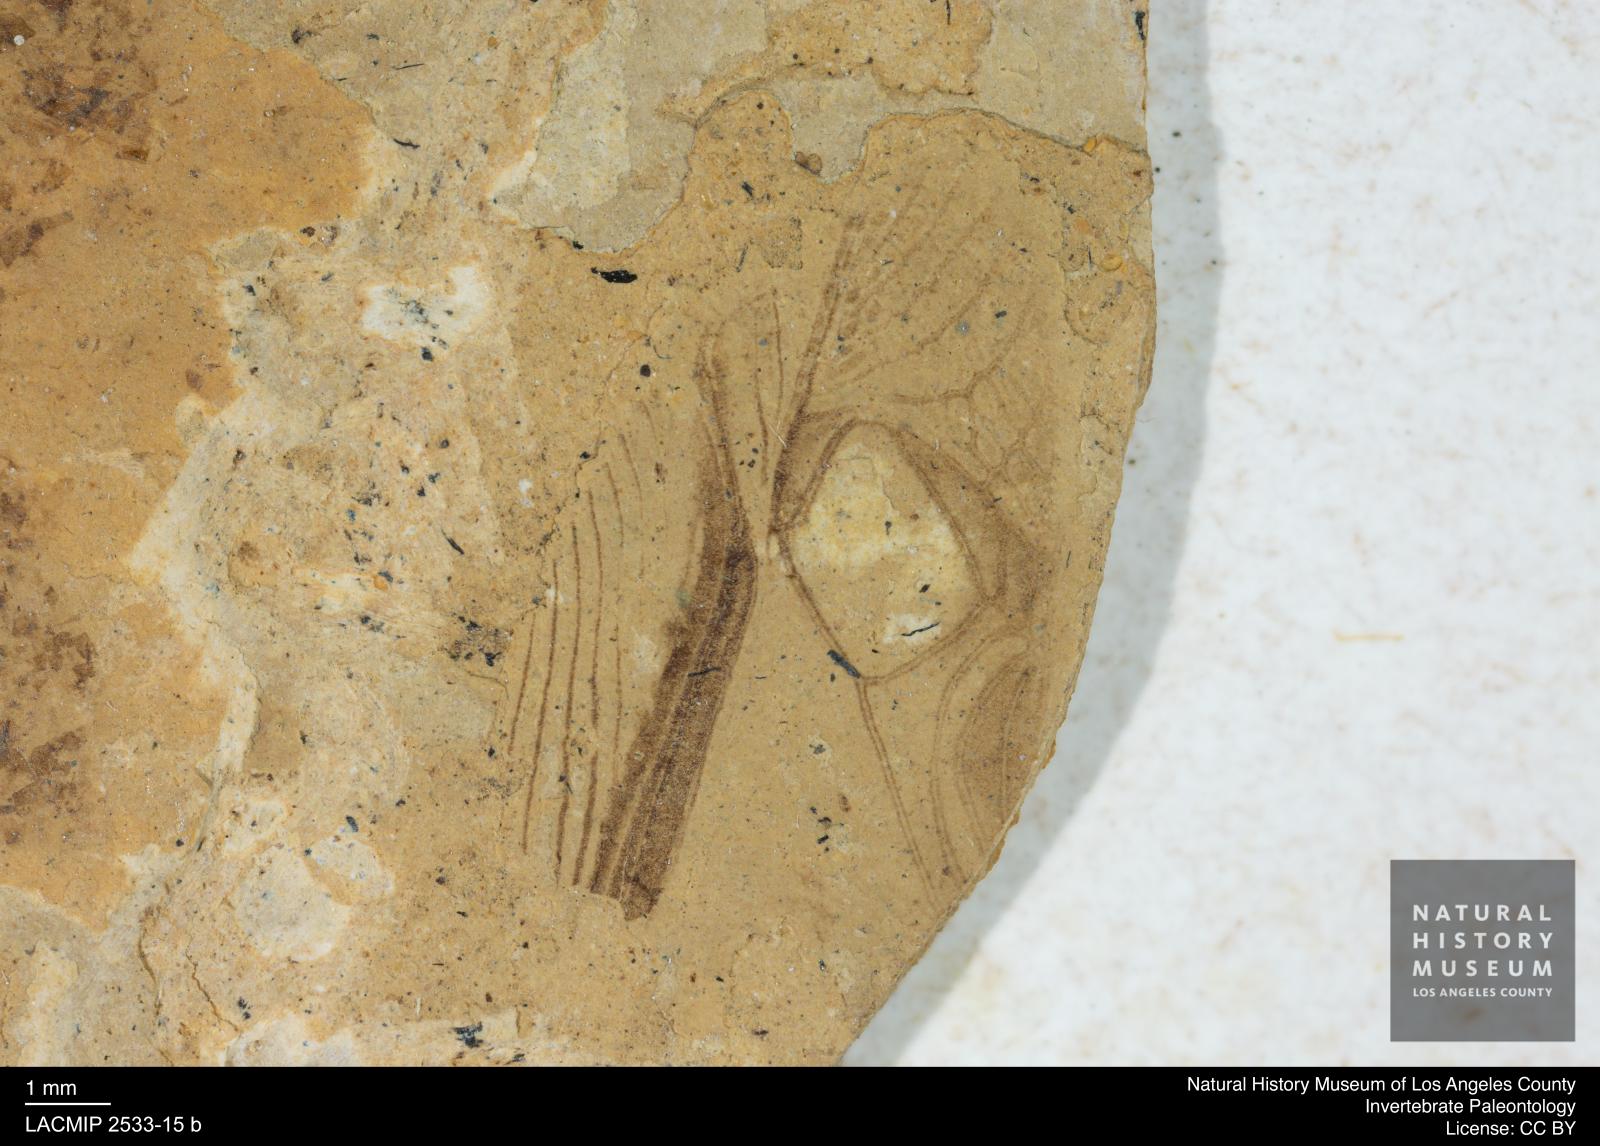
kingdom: Animalia
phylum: Arthropoda
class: Insecta
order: Orthoptera
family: Gryllidae
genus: Gryllus
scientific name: Gryllus Liogryllus rottensis
